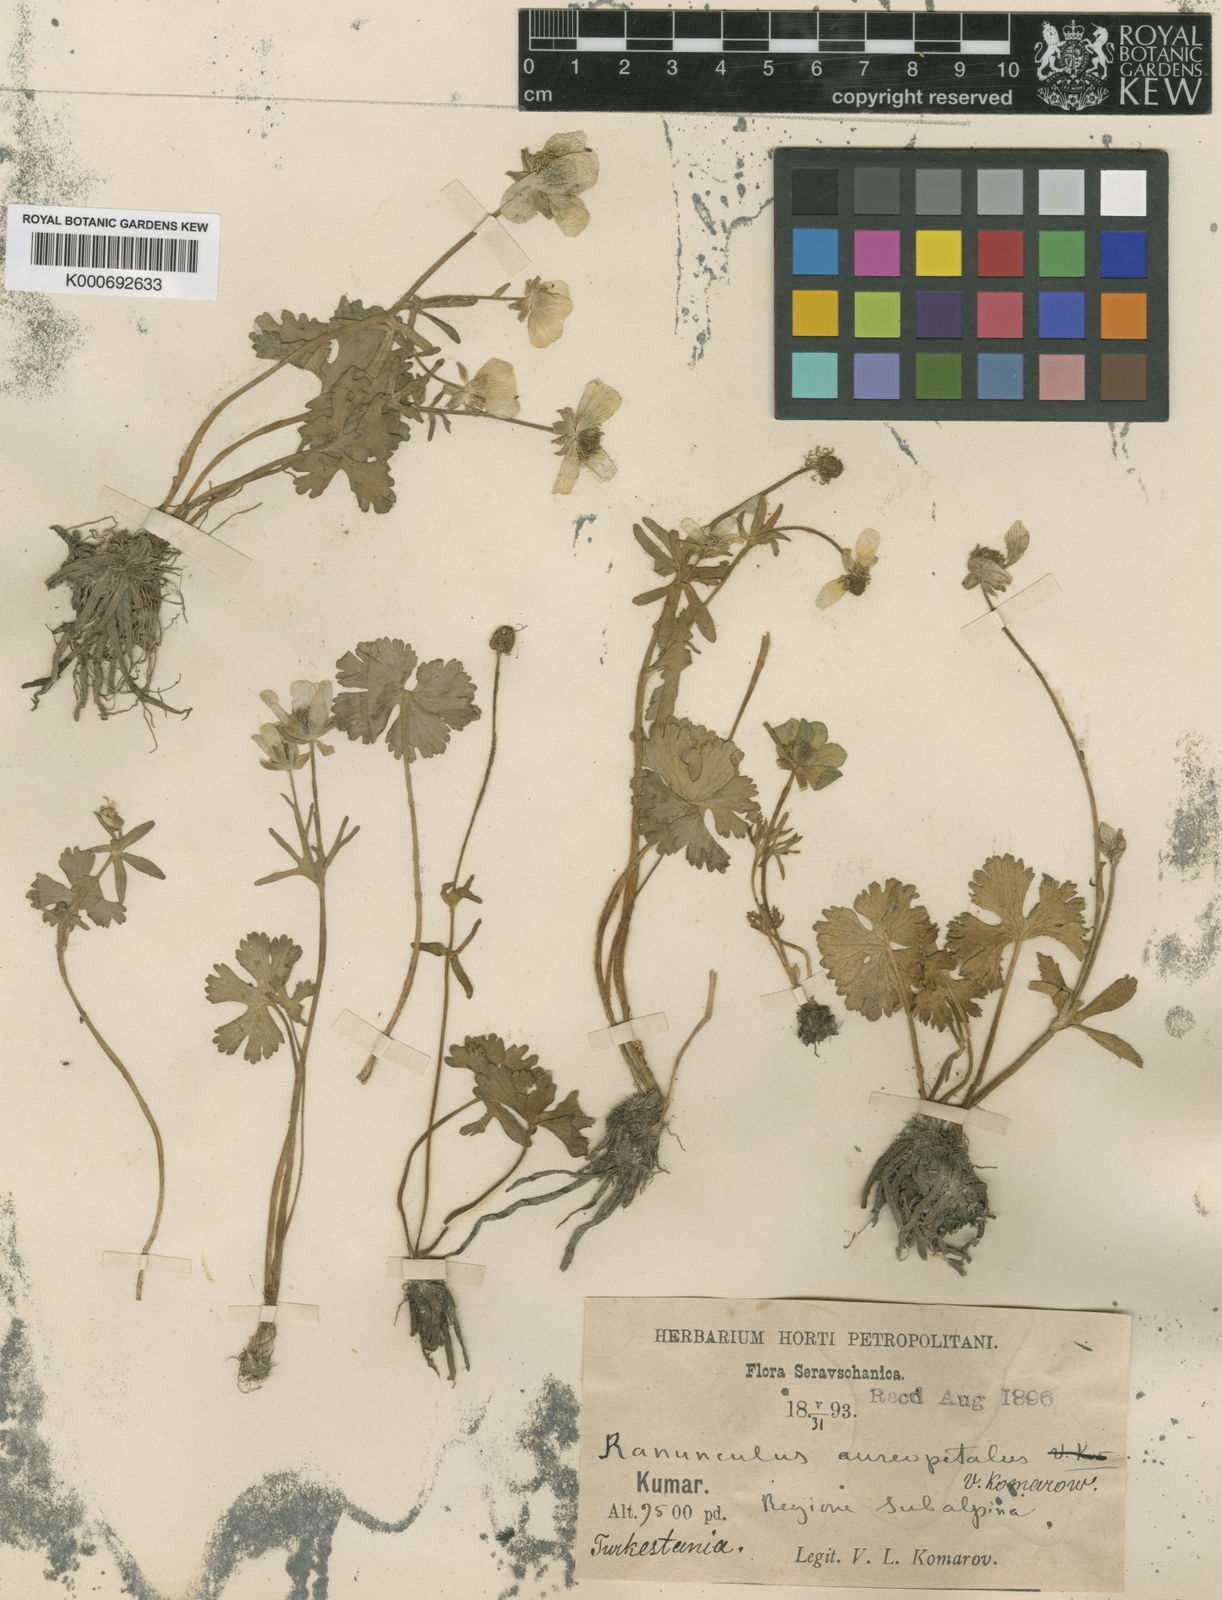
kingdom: Plantae
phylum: Tracheophyta
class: Magnoliopsida
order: Ranunculales
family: Ranunculaceae
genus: Ranunculus
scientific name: Ranunculus aureopetalus
